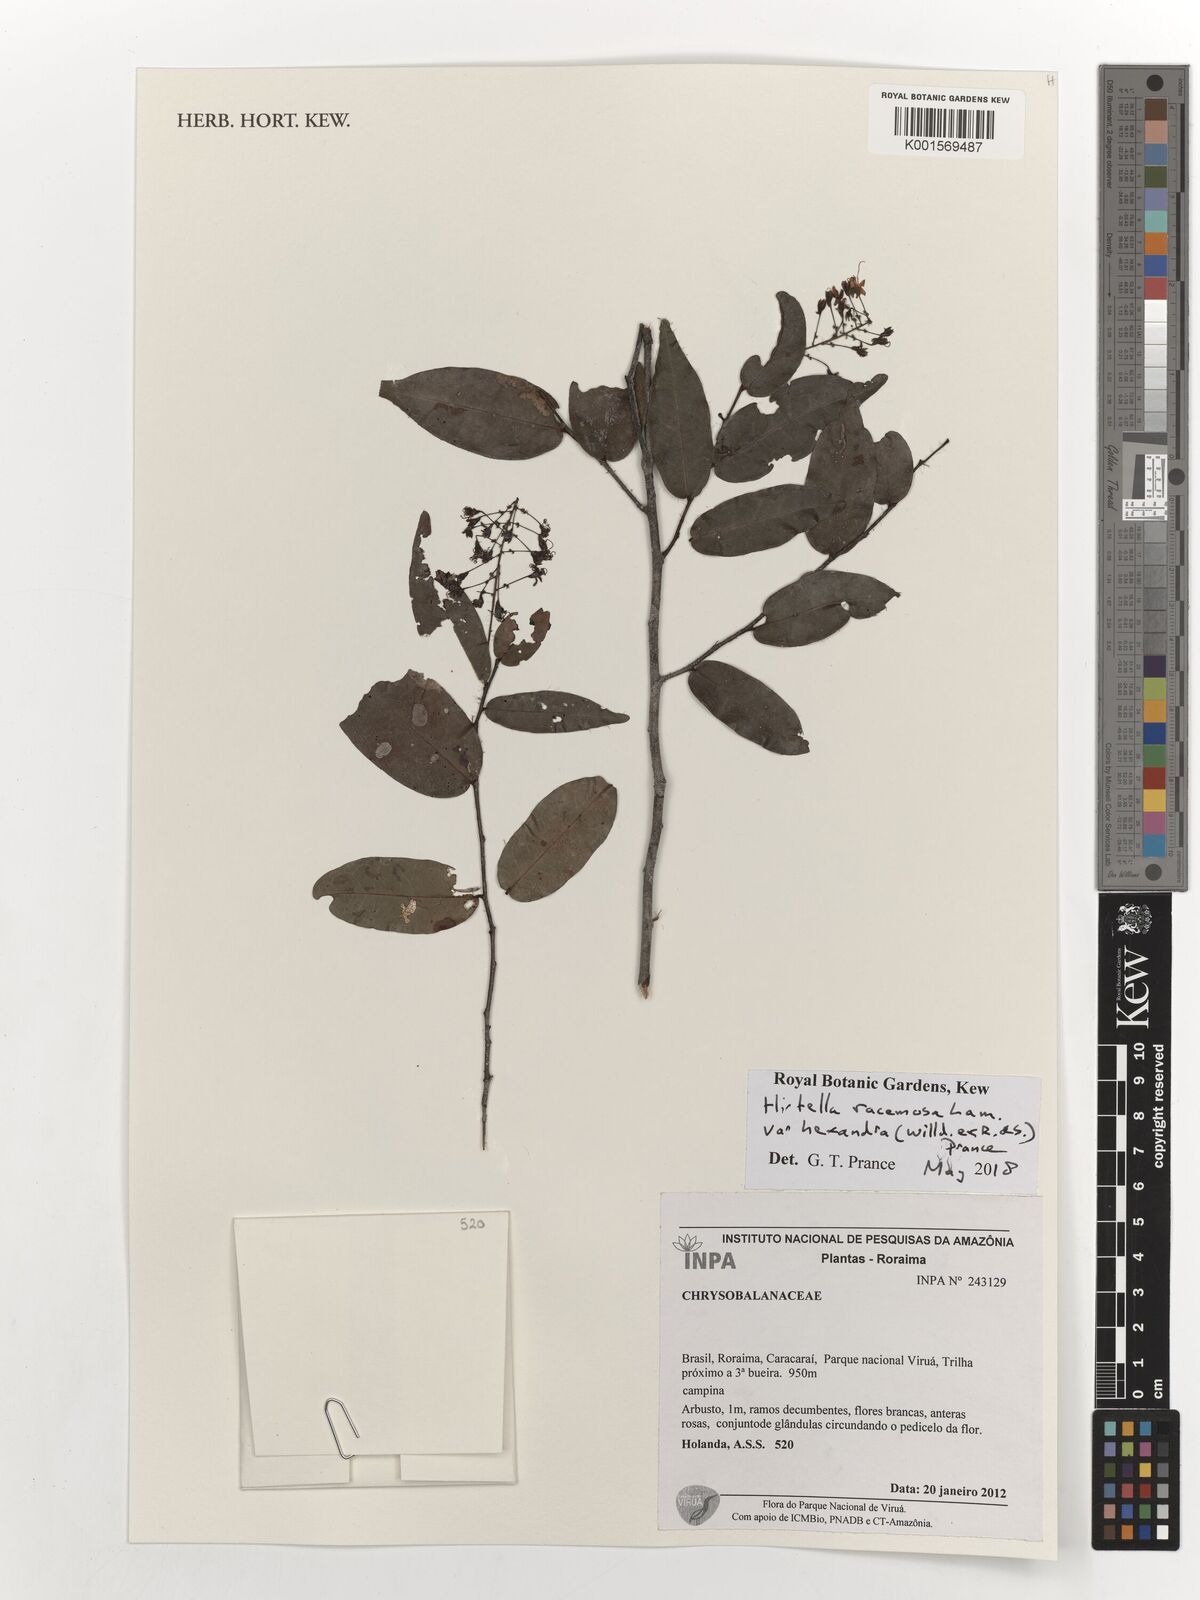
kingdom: Plantae
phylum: Tracheophyta
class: Magnoliopsida
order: Malpighiales
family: Chrysobalanaceae
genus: Hirtella
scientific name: Hirtella racemosa
